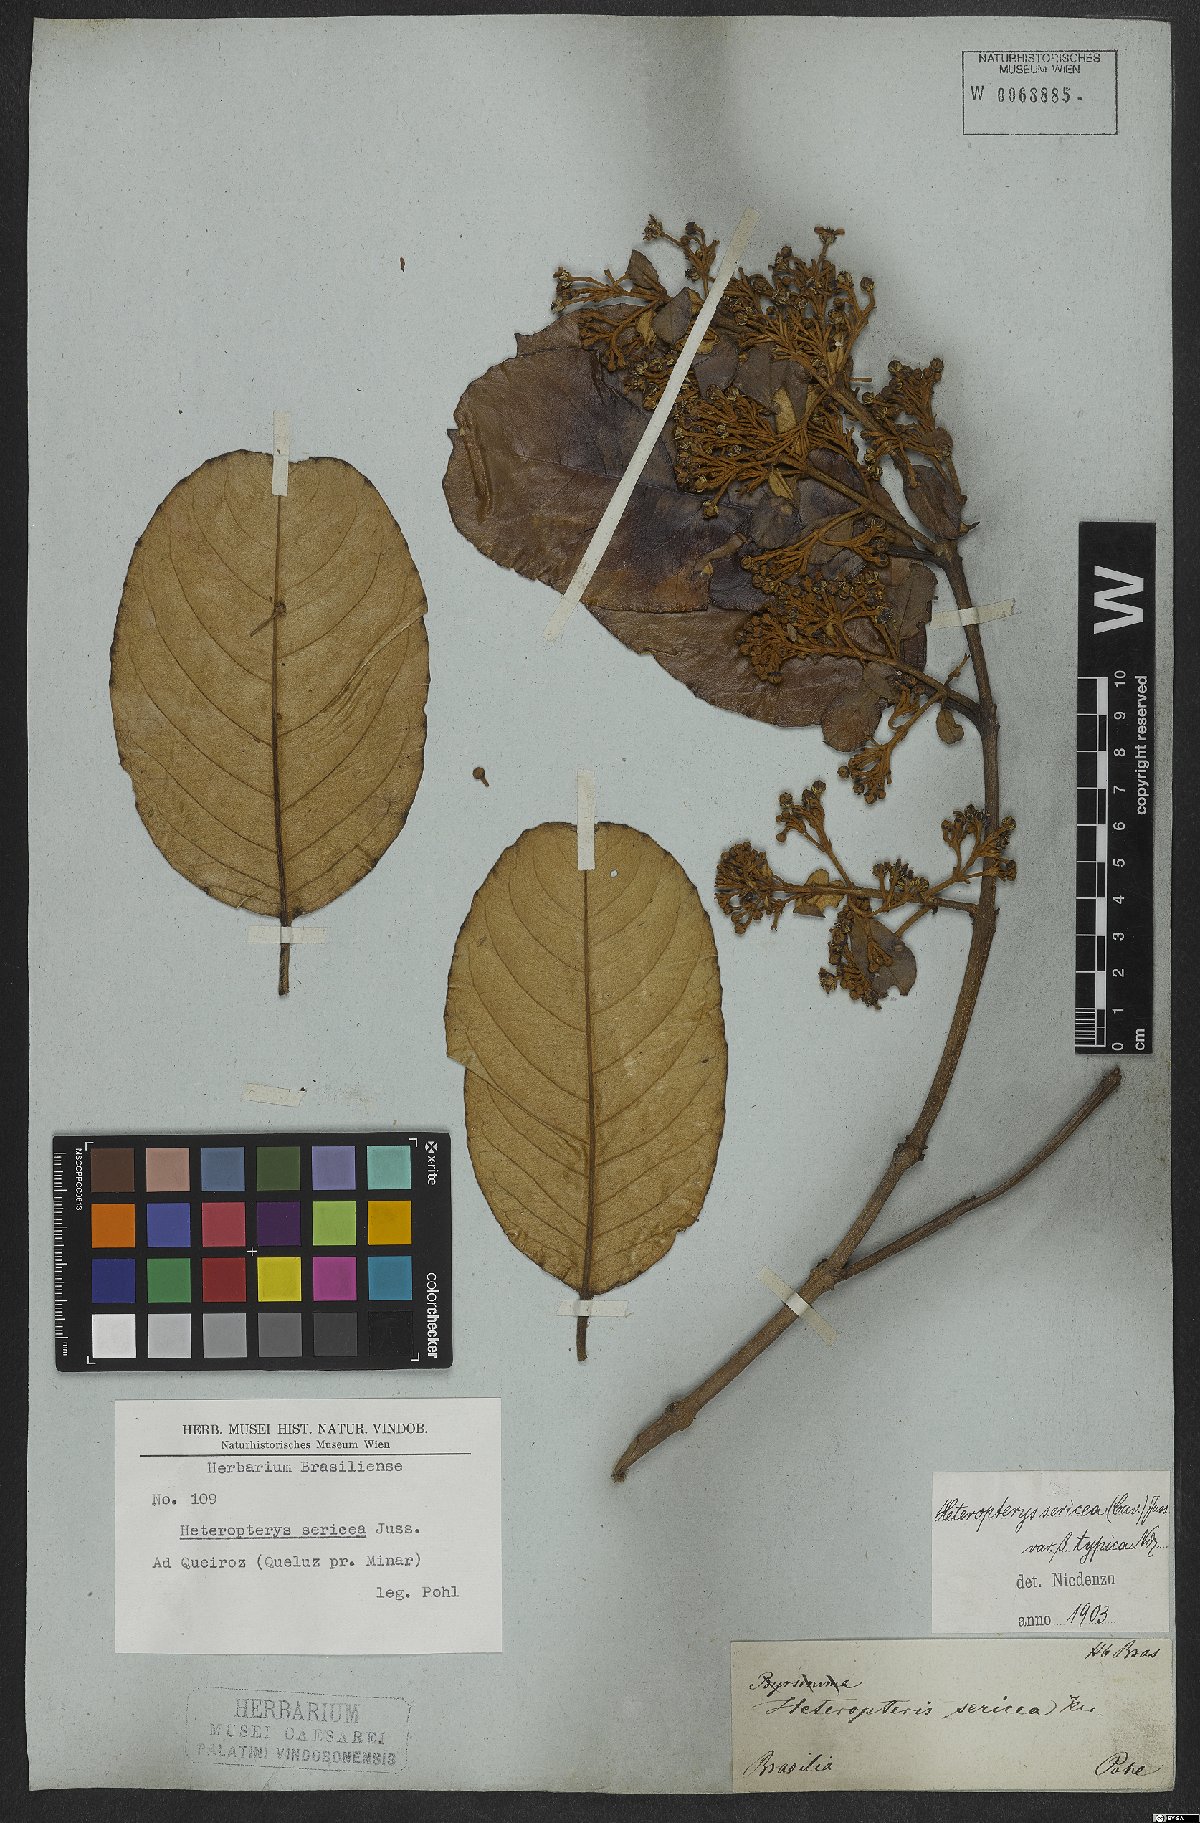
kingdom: Plantae
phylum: Tracheophyta
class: Magnoliopsida
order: Malpighiales
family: Malpighiaceae
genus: Heteropterys
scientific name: Heteropterys sericea
